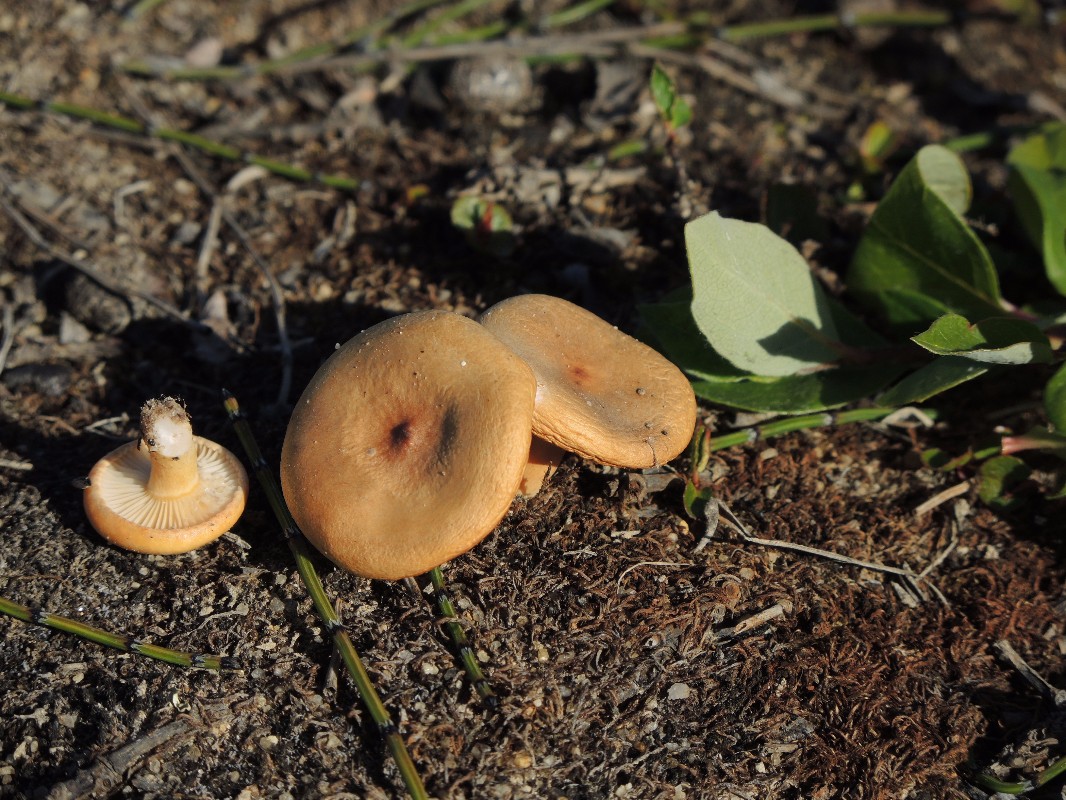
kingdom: Fungi
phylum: Basidiomycota
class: Agaricomycetes
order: Russulales
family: Russulaceae
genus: Lactarius
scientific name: Lactarius salicis-herbaceae
